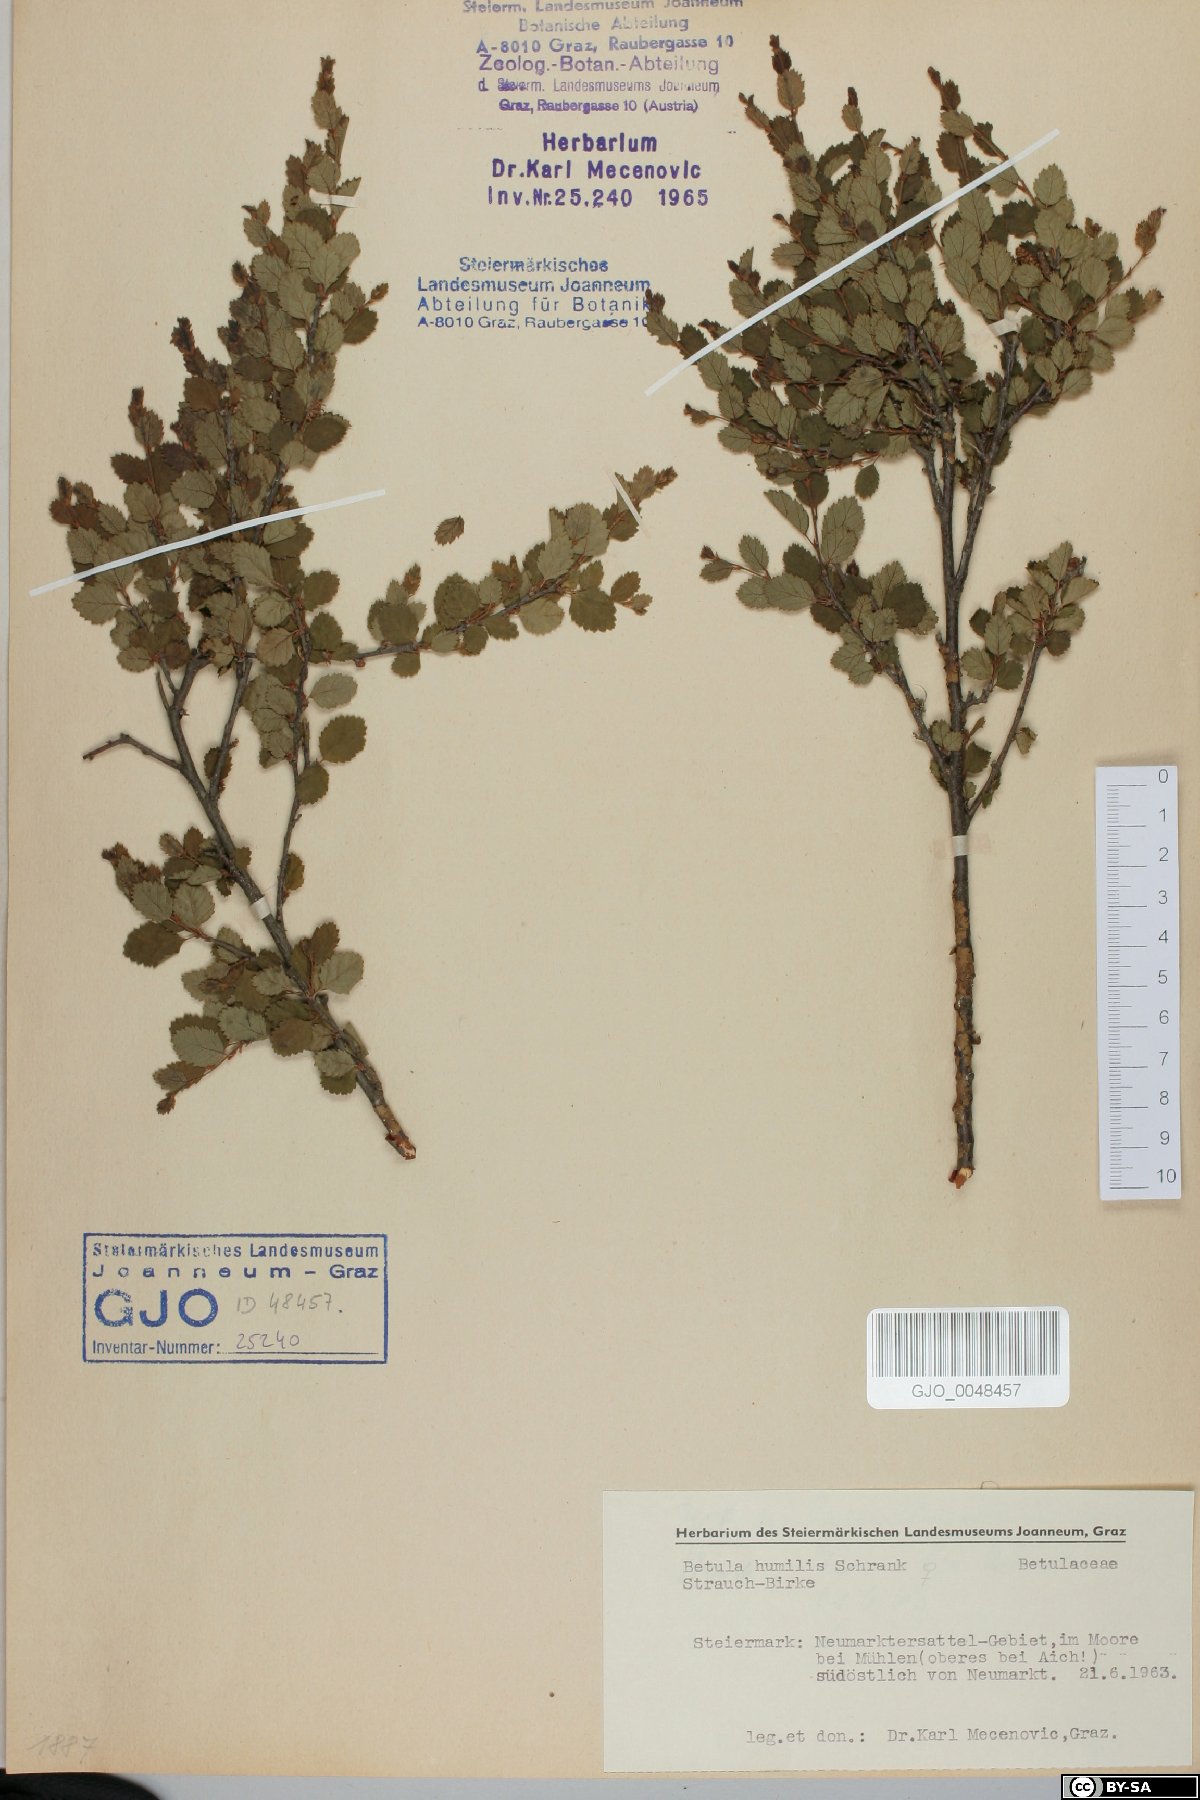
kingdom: Plantae
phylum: Tracheophyta
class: Magnoliopsida
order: Fagales
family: Betulaceae
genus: Betula
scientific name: Betula humilis
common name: Shrubby birch
